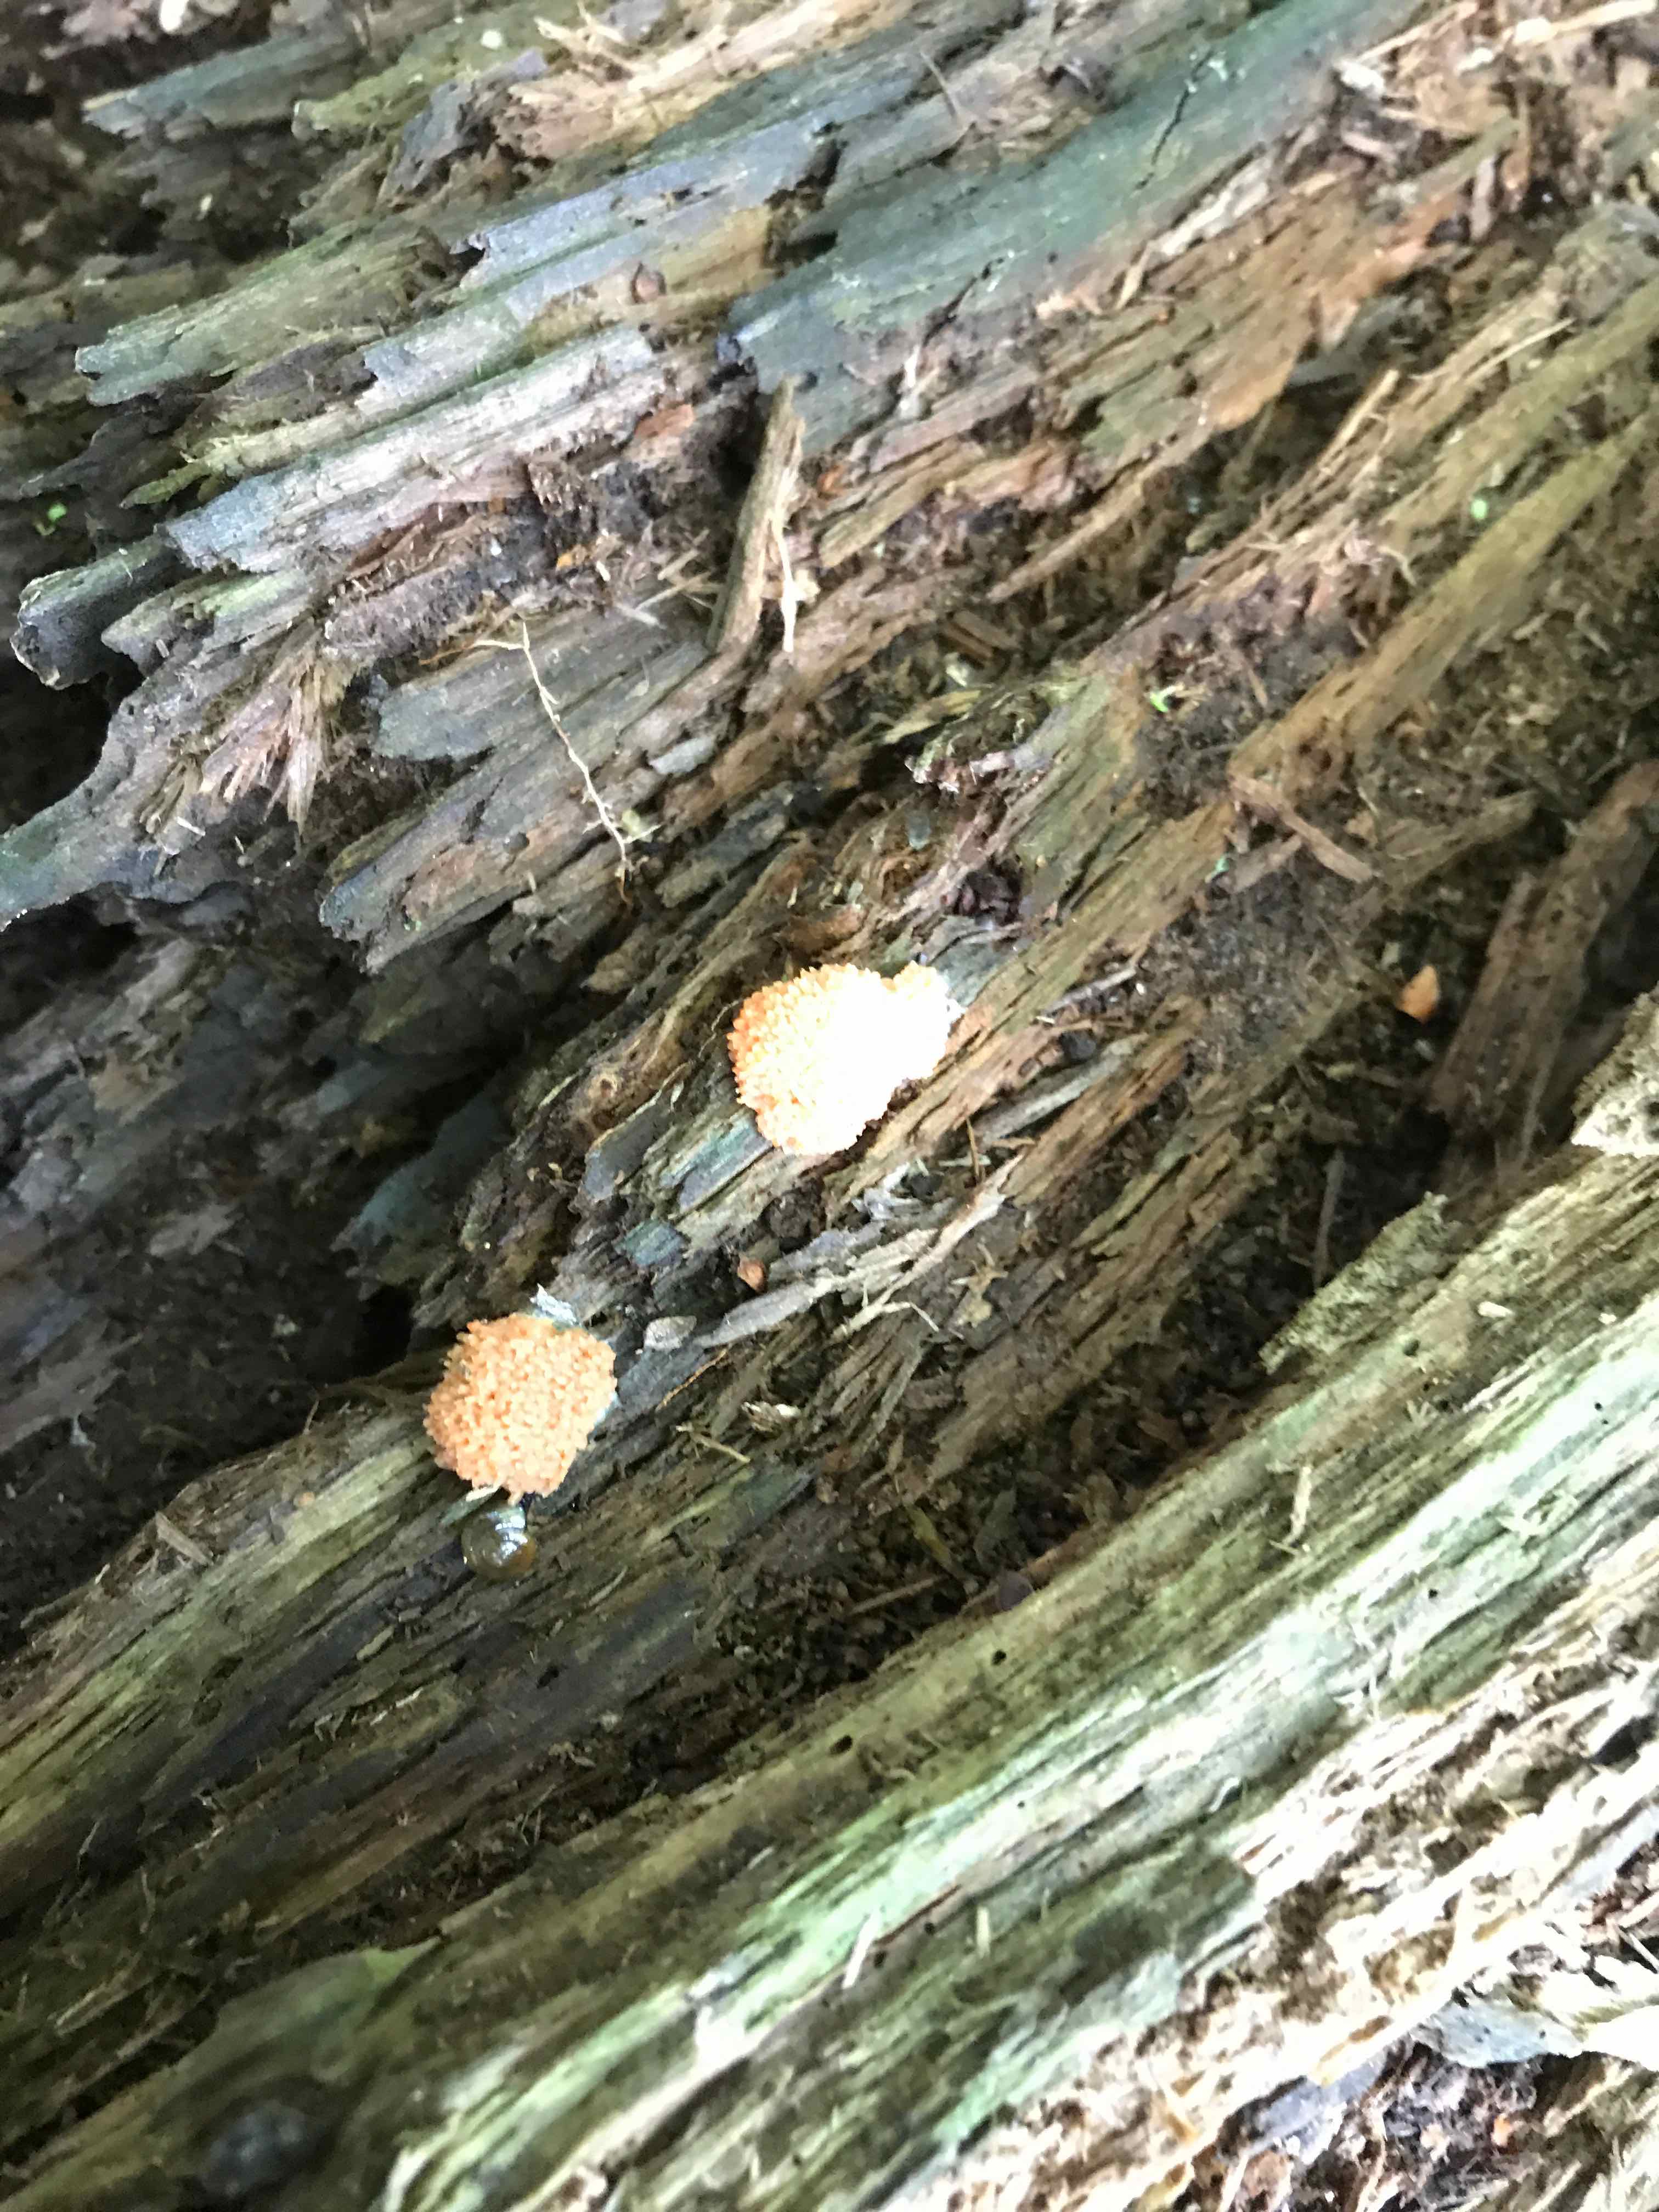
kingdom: Protozoa
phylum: Mycetozoa
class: Myxomycetes
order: Cribrariales
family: Tubiferaceae
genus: Tubifera
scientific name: Tubifera ferruginosa
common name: kanel-støvrør
